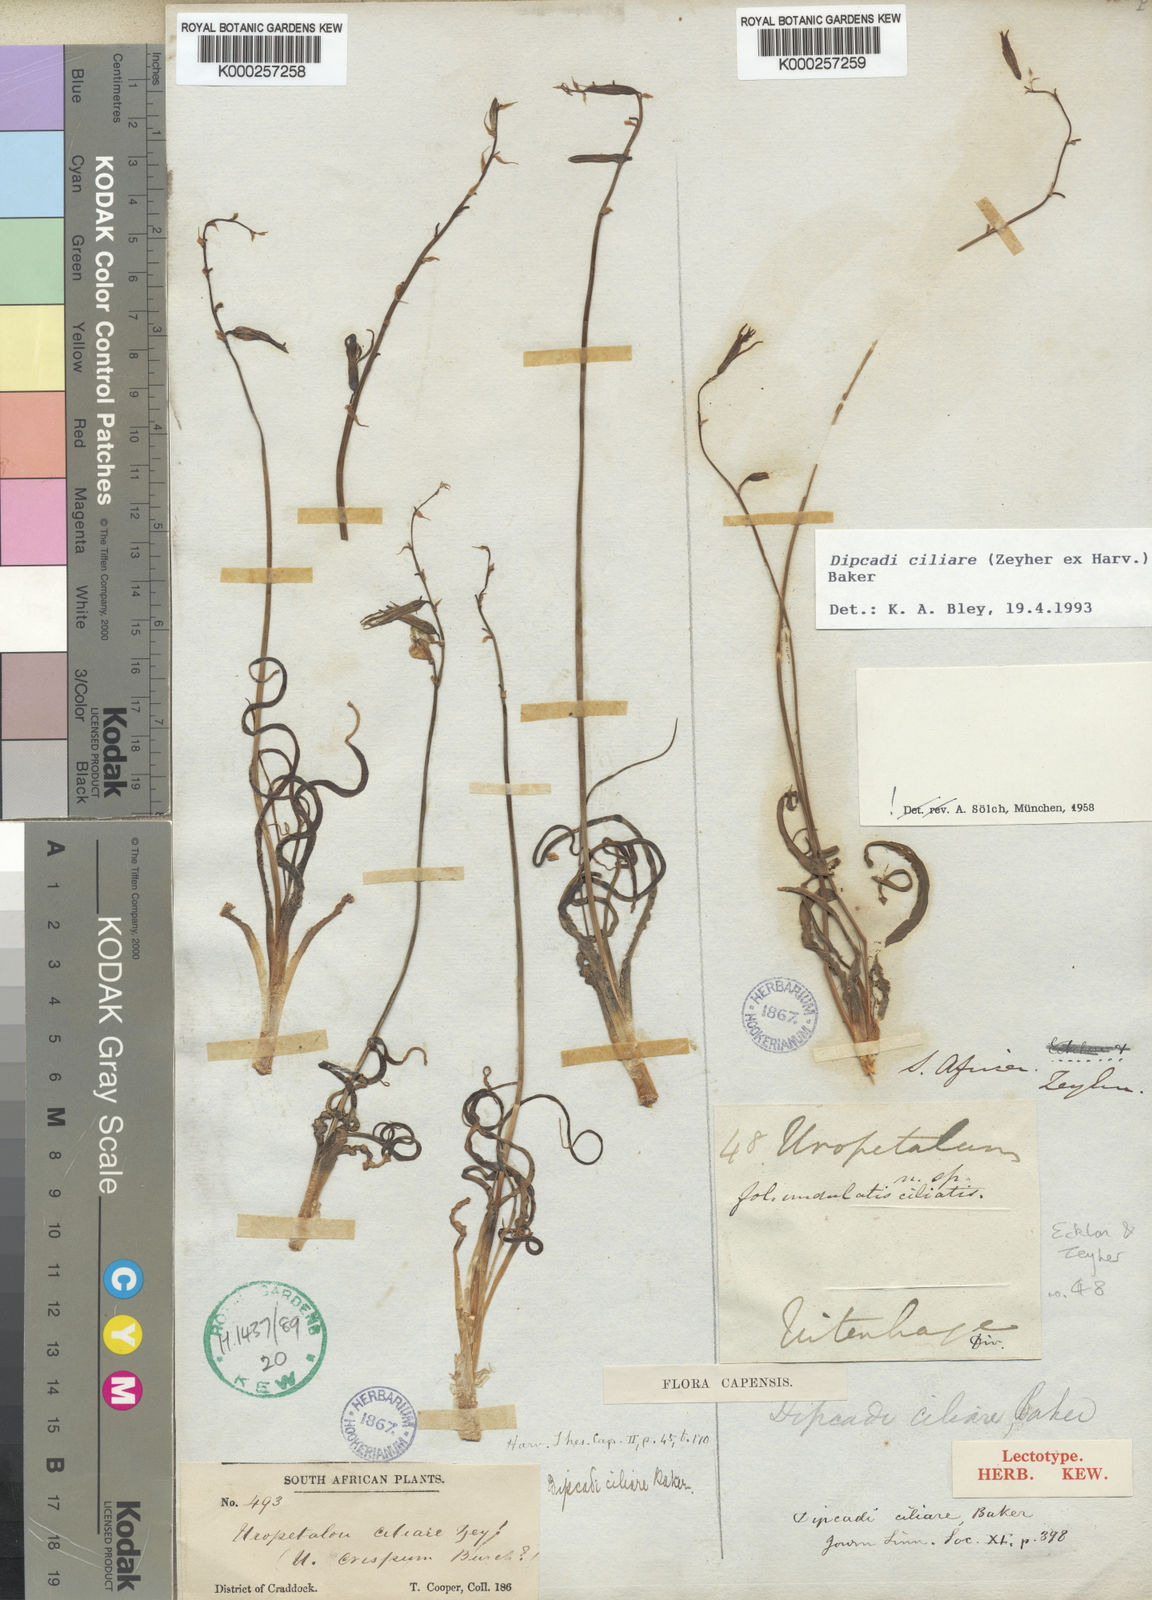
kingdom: Plantae
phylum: Tracheophyta
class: Liliopsida
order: Asparagales
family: Asparagaceae
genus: Dipcadi
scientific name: Dipcadi ciliare
